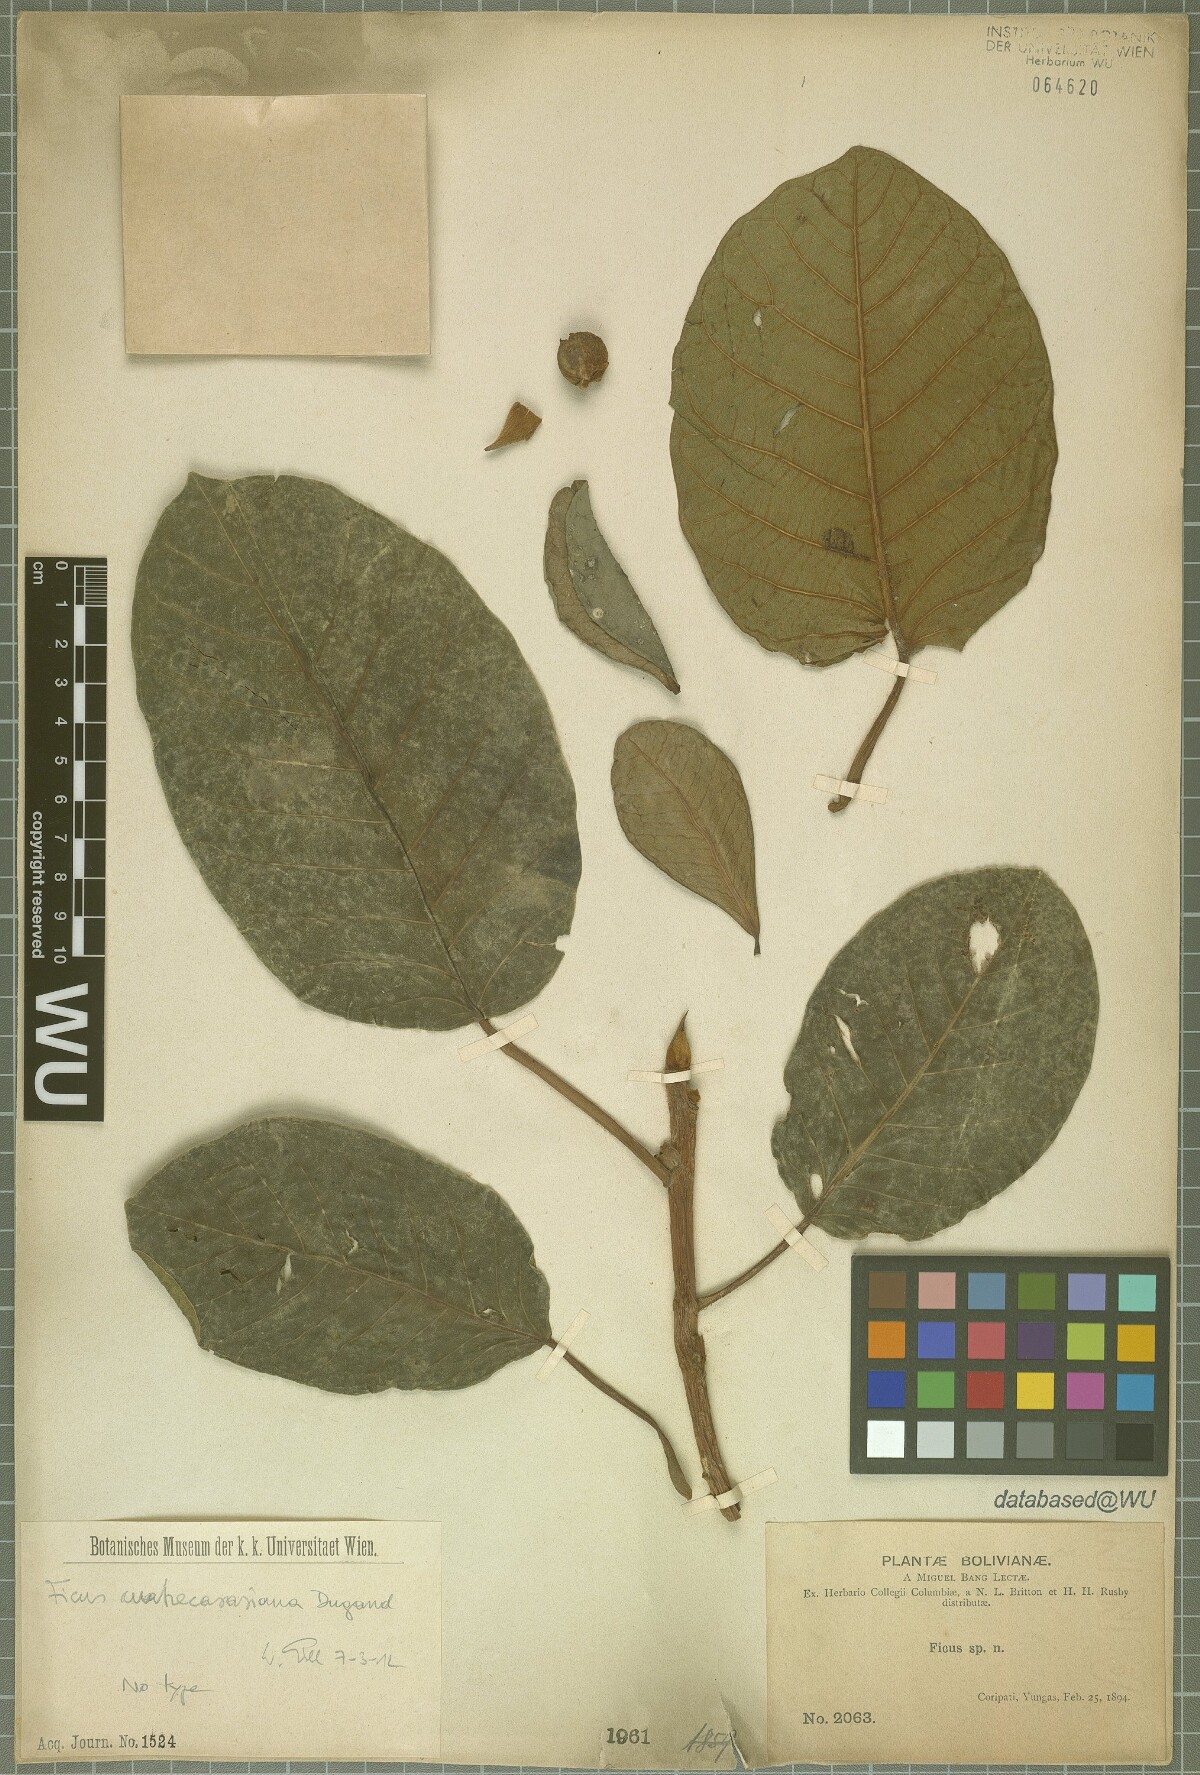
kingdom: Plantae
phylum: Tracheophyta
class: Magnoliopsida
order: Rosales
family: Moraceae
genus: Ficus
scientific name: Ficus cuatrecasasiana
